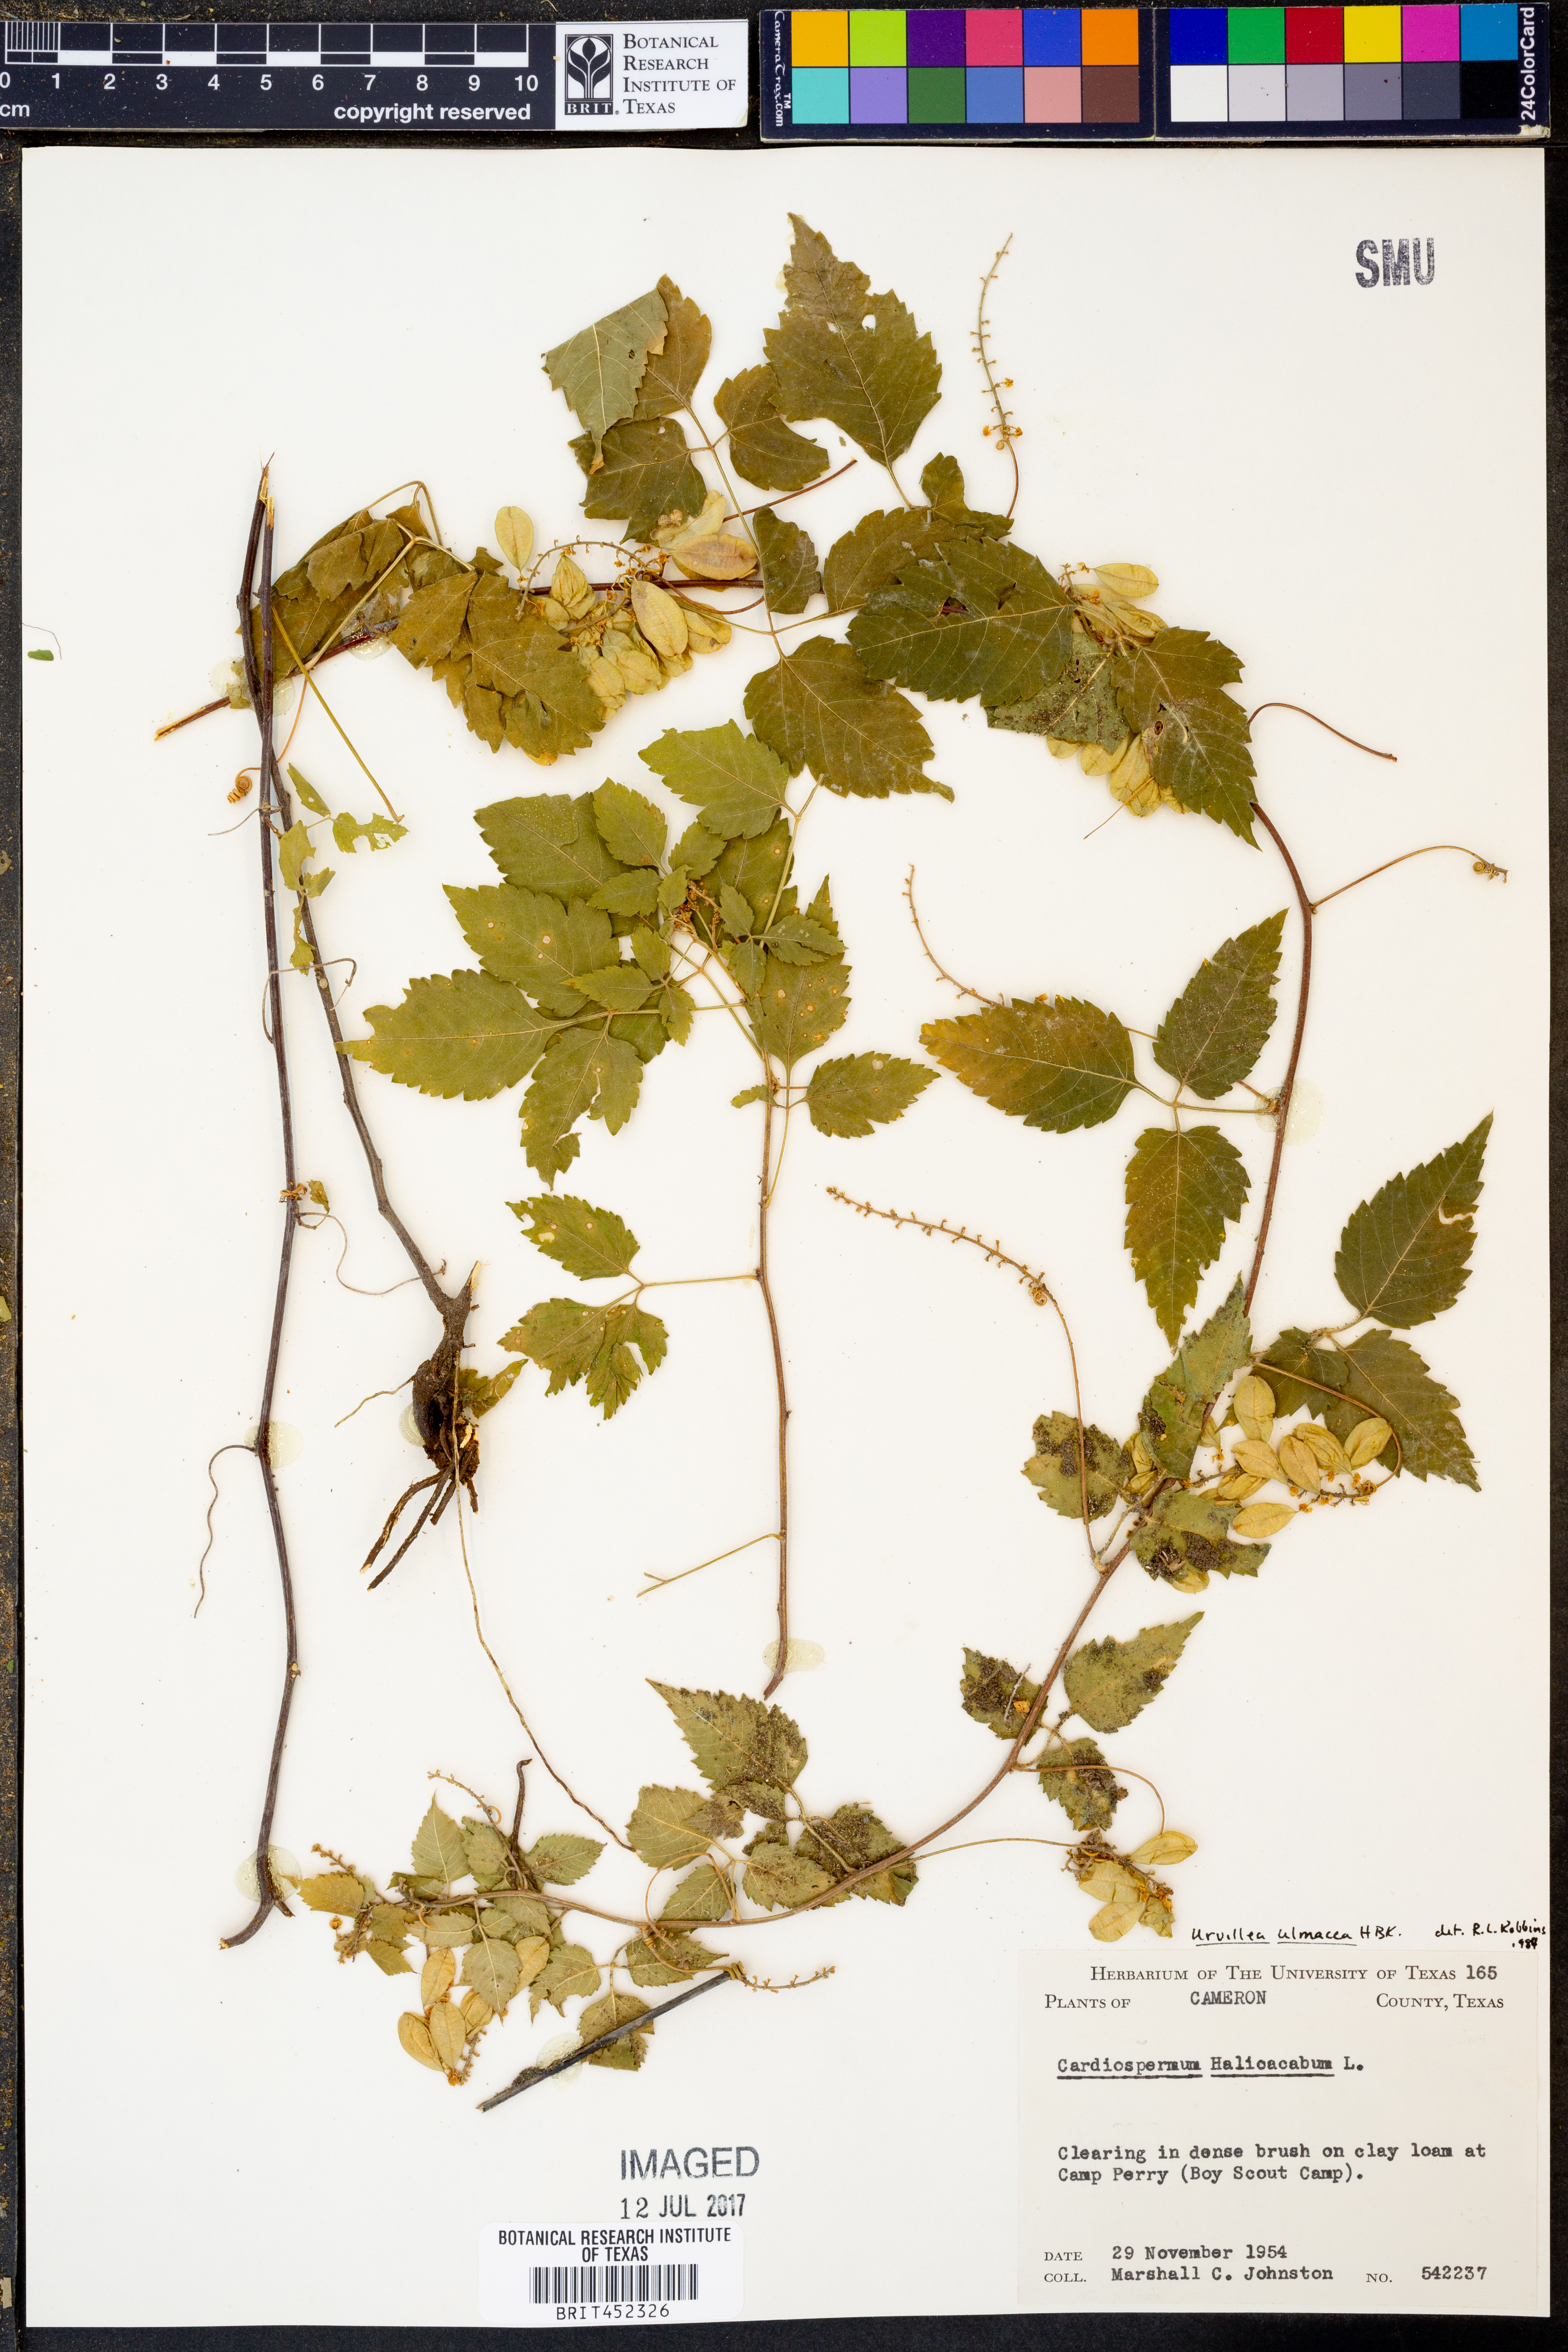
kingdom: Plantae
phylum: Tracheophyta
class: Magnoliopsida
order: Sapindales
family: Sapindaceae
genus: Urvillea
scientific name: Urvillea ulmacea
